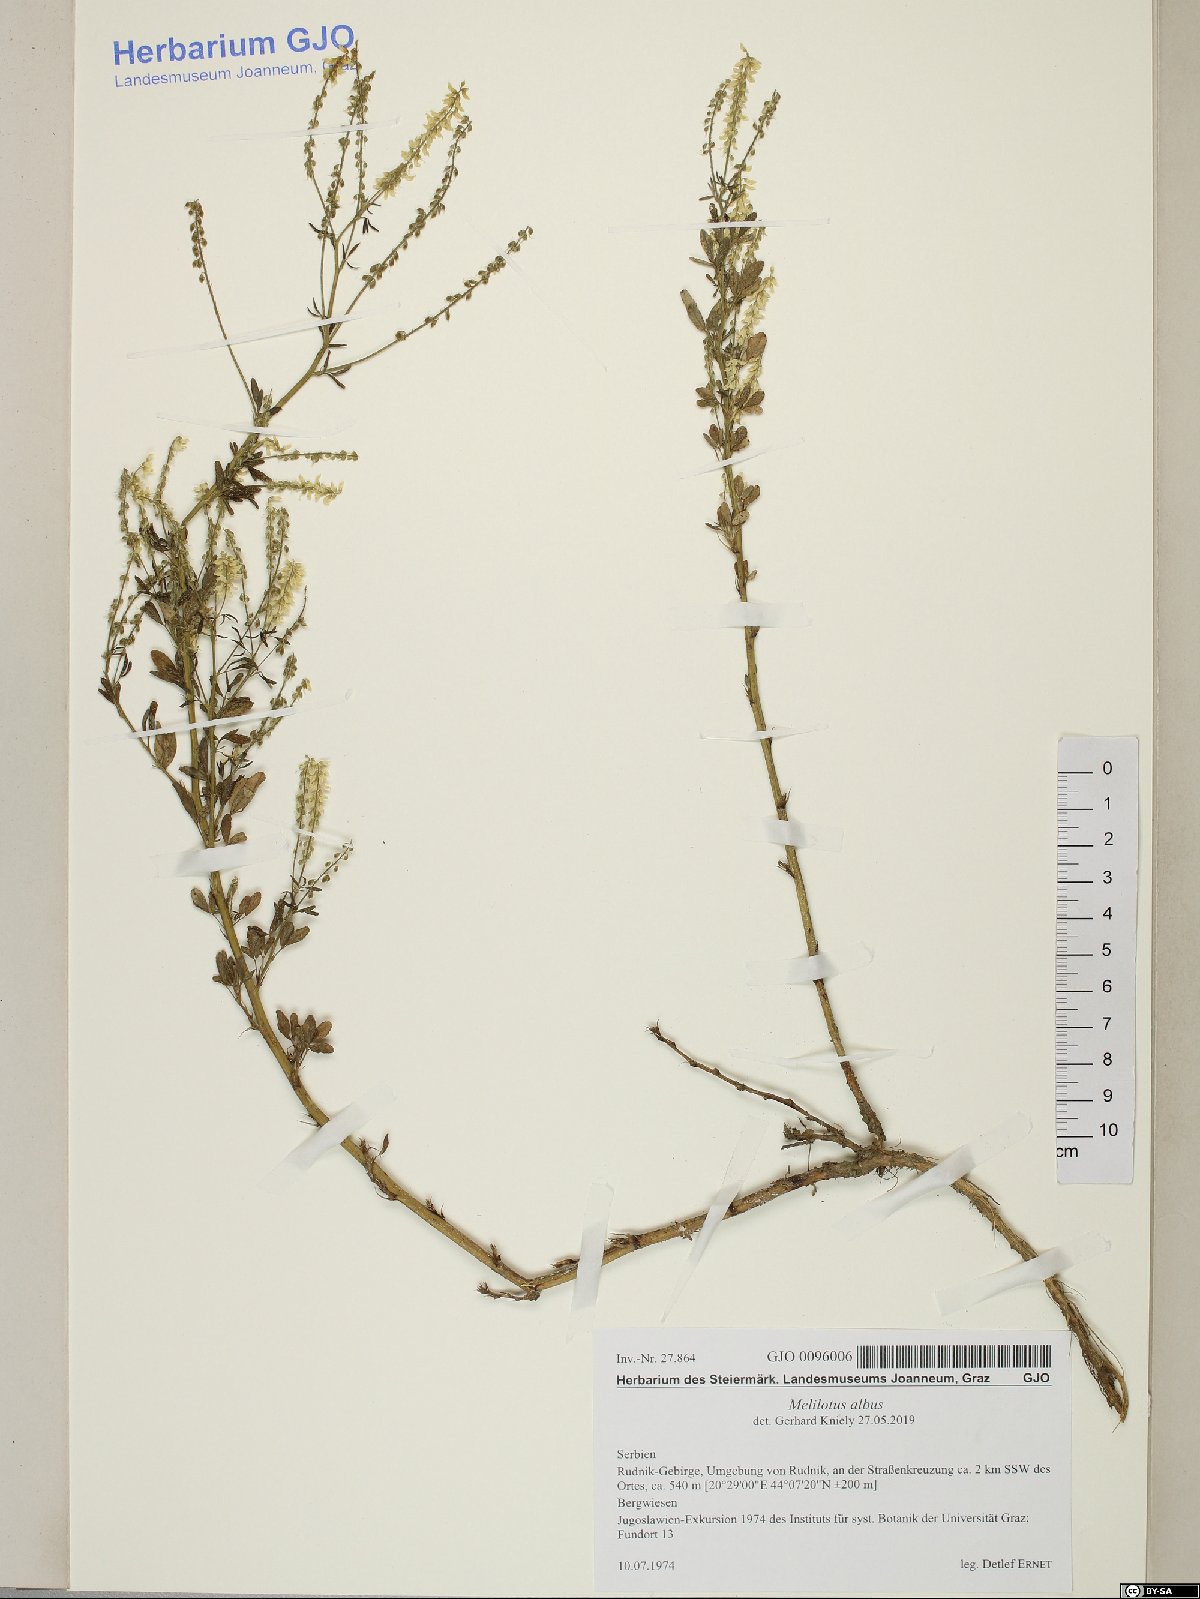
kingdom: Plantae
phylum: Tracheophyta
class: Magnoliopsida
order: Fabales
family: Fabaceae
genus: Melilotus
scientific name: Melilotus albus
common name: White melilot
